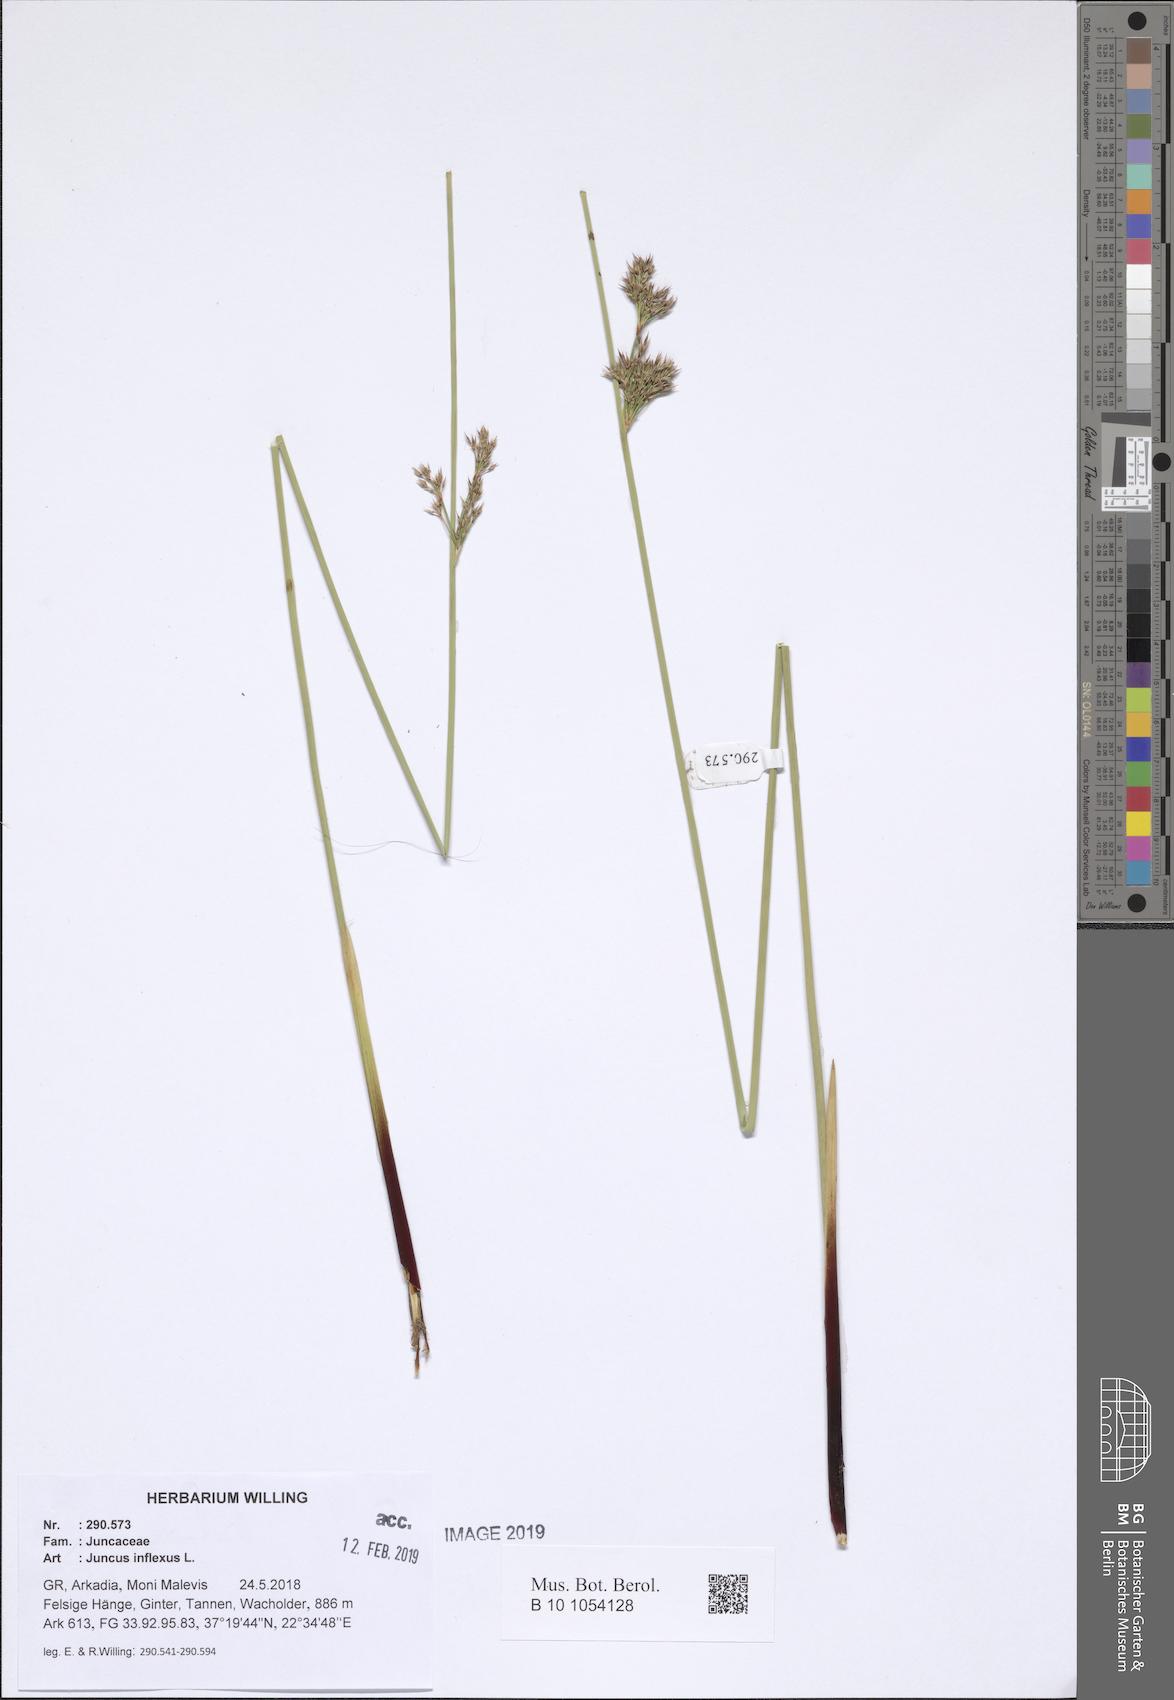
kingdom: Plantae
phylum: Tracheophyta
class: Liliopsida
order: Poales
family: Juncaceae
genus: Juncus
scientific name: Juncus inflexus
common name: Hard rush
